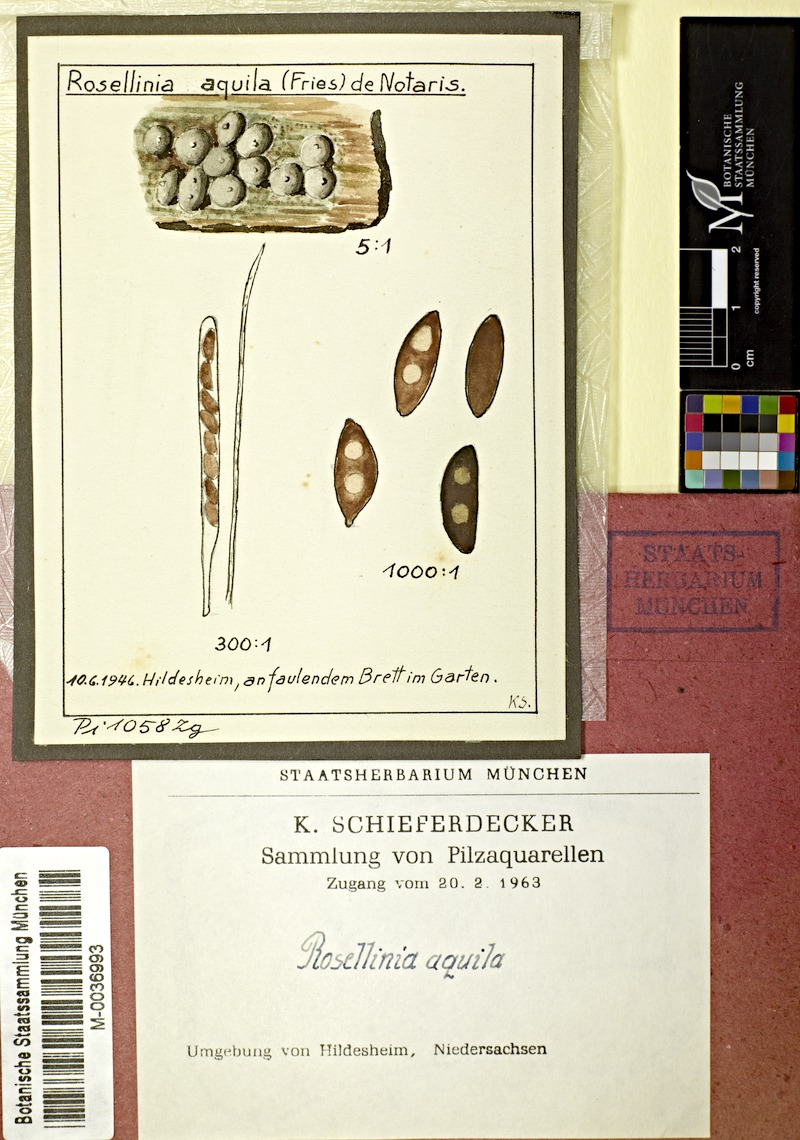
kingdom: Fungi
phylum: Ascomycota
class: Sordariomycetes
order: Xylariales
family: Xylariaceae
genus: Rosellinia
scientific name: Rosellinia aquila
